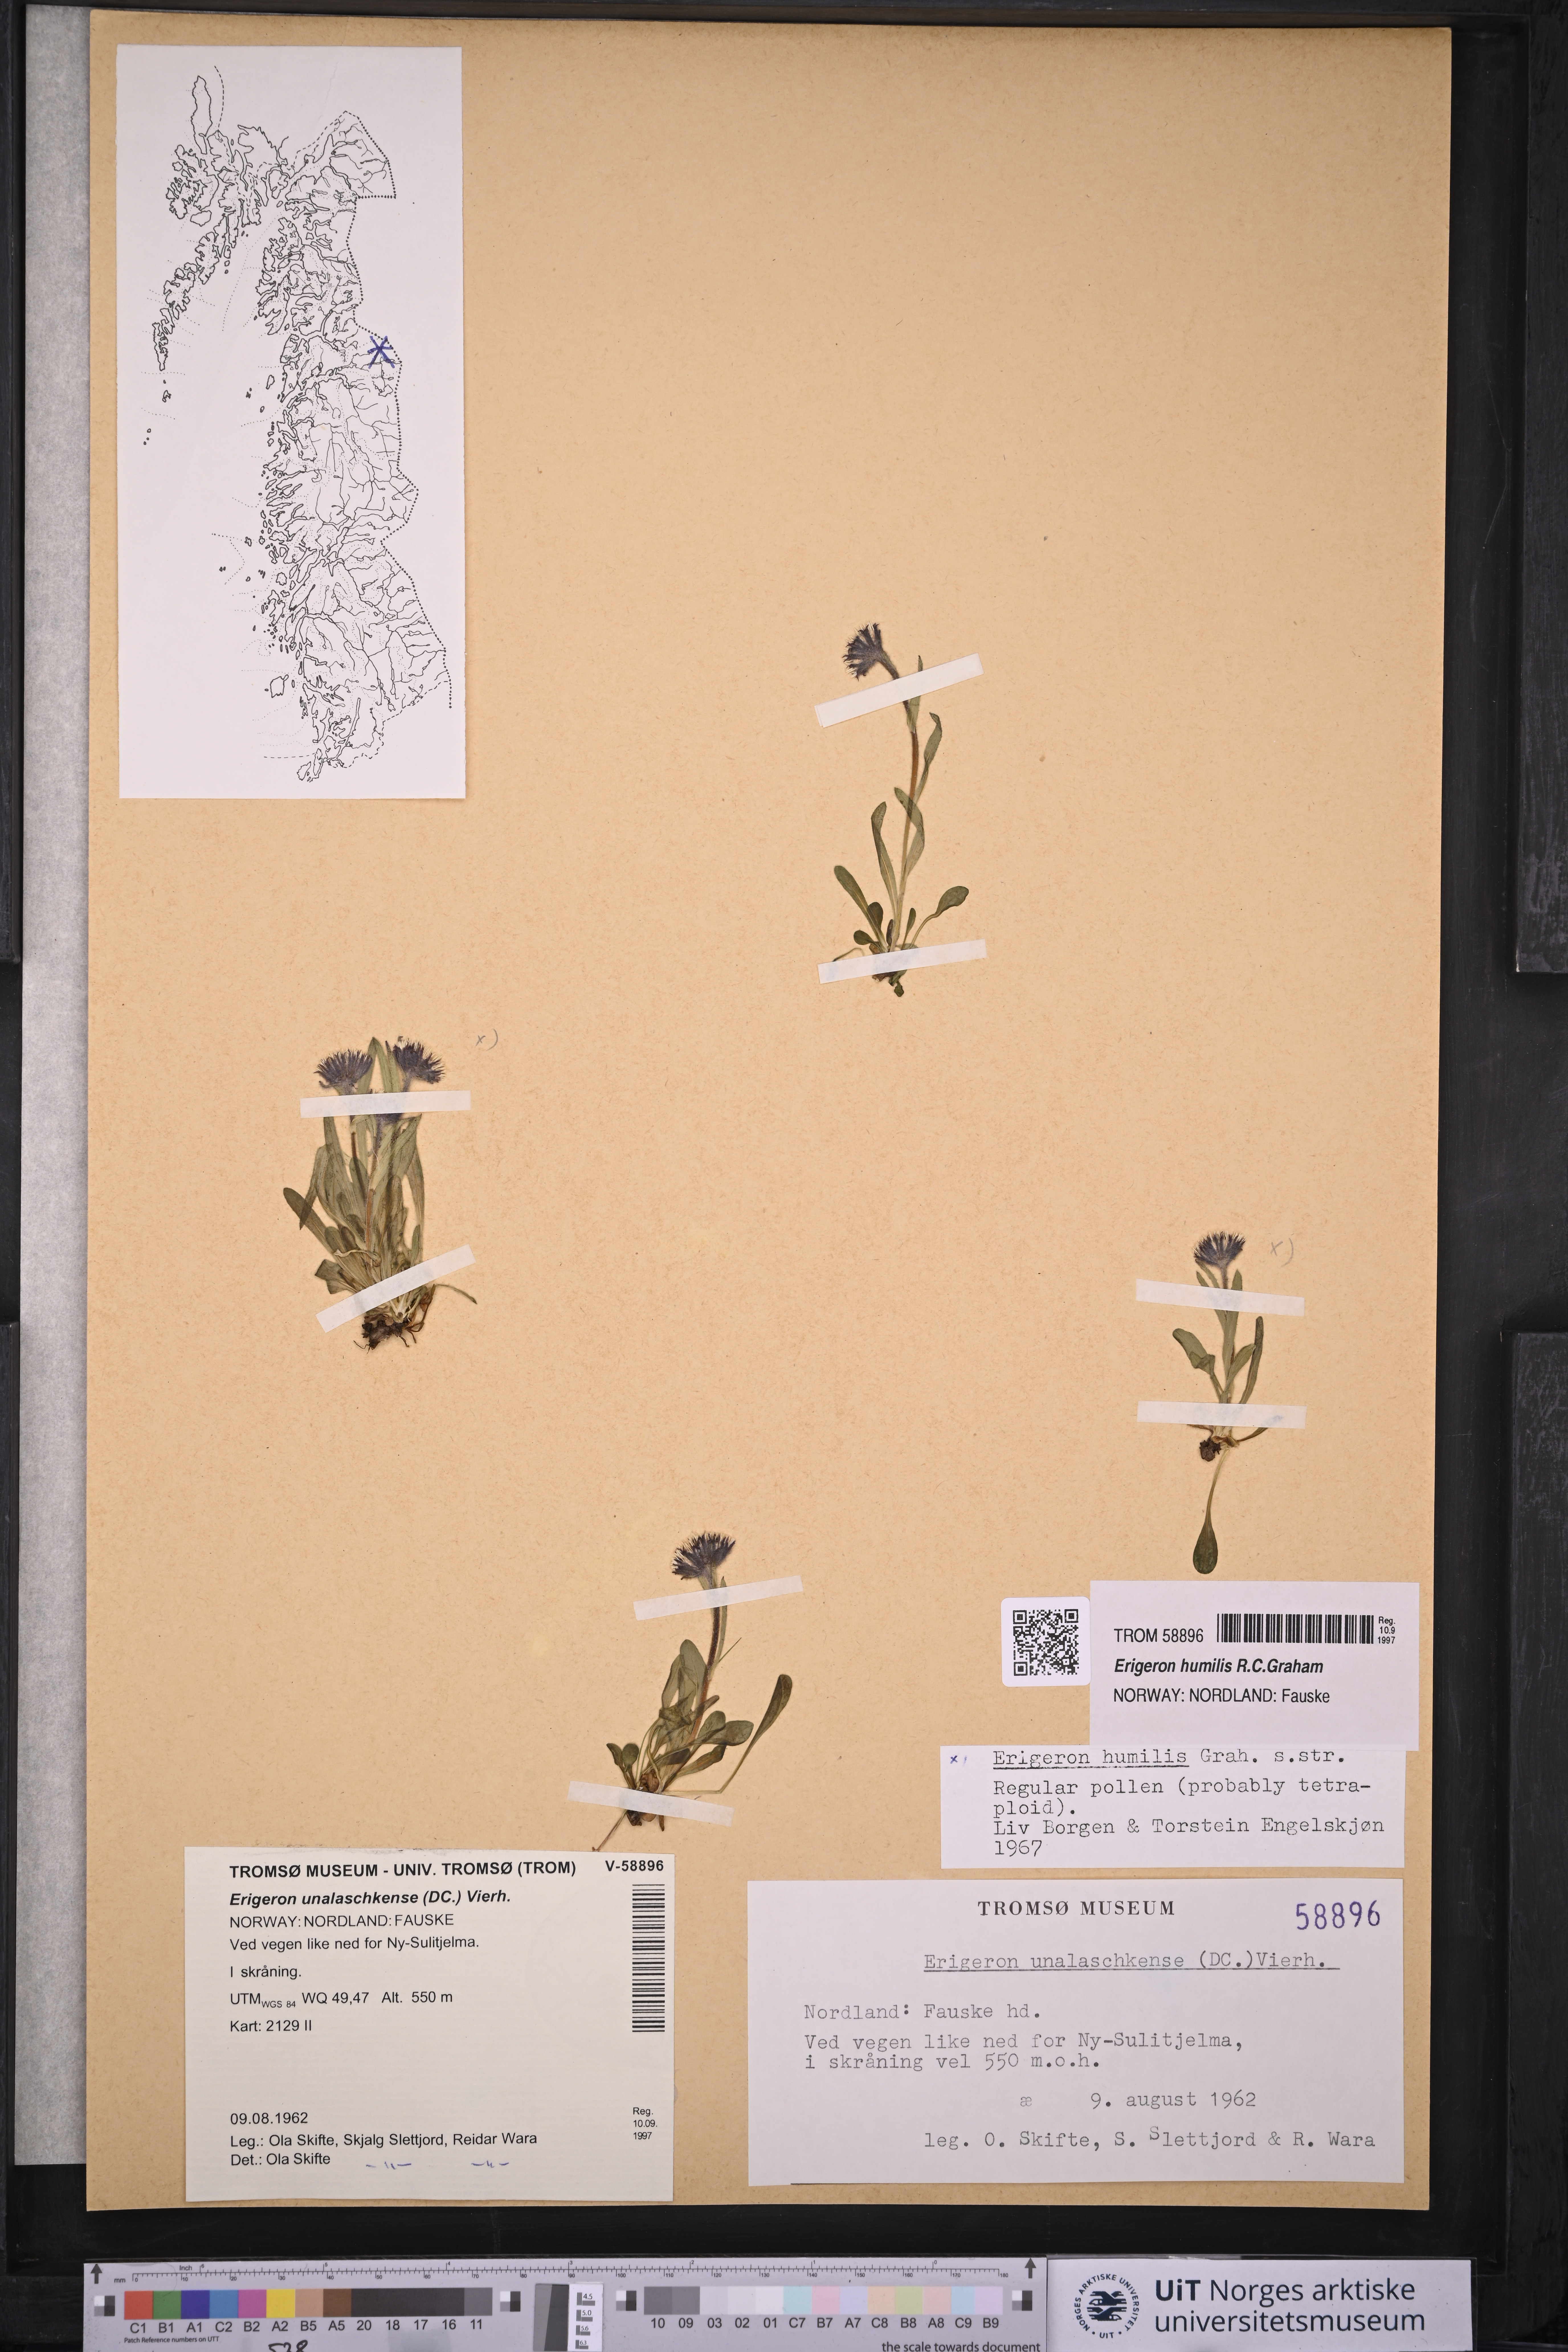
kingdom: Plantae
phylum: Tracheophyta
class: Magnoliopsida
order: Asterales
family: Asteraceae
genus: Erigeron
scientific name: Erigeron humilis
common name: Arctic-alpine fleabane
